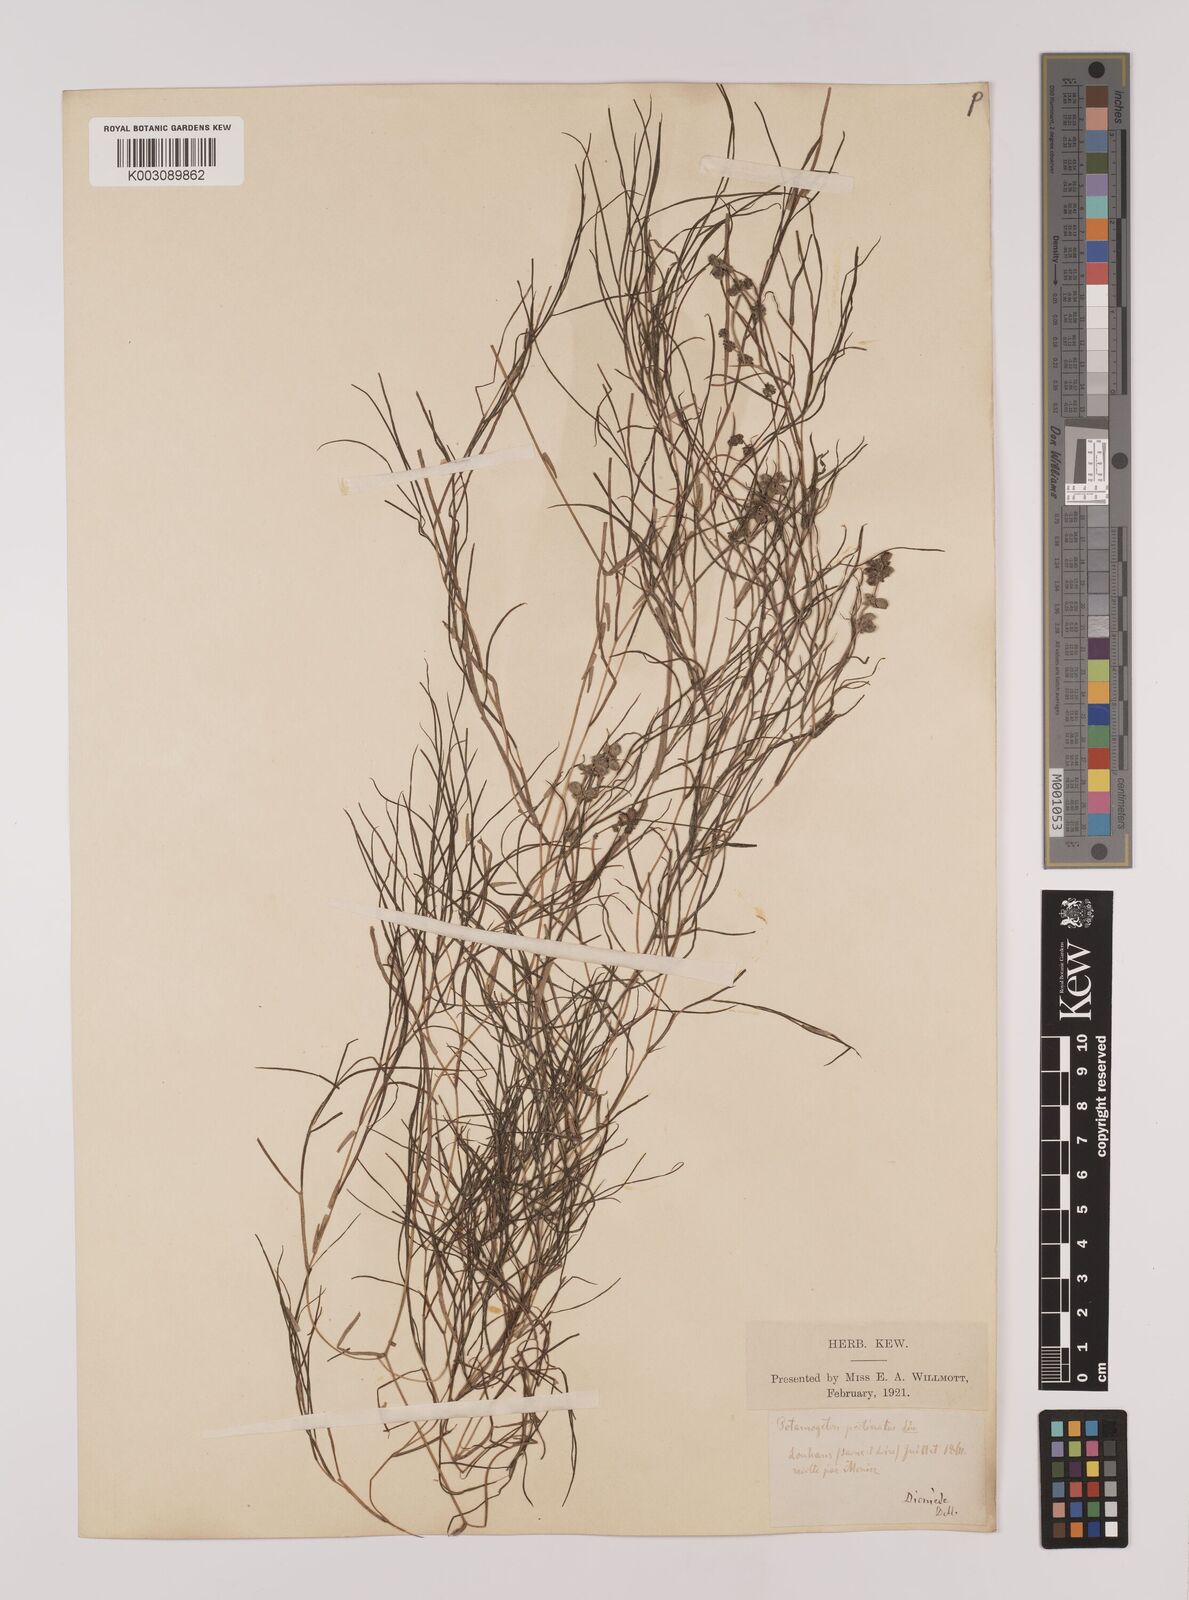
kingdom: Plantae
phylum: Tracheophyta
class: Liliopsida
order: Alismatales
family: Potamogetonaceae
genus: Stuckenia
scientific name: Stuckenia pectinata
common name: Sago pondweed
